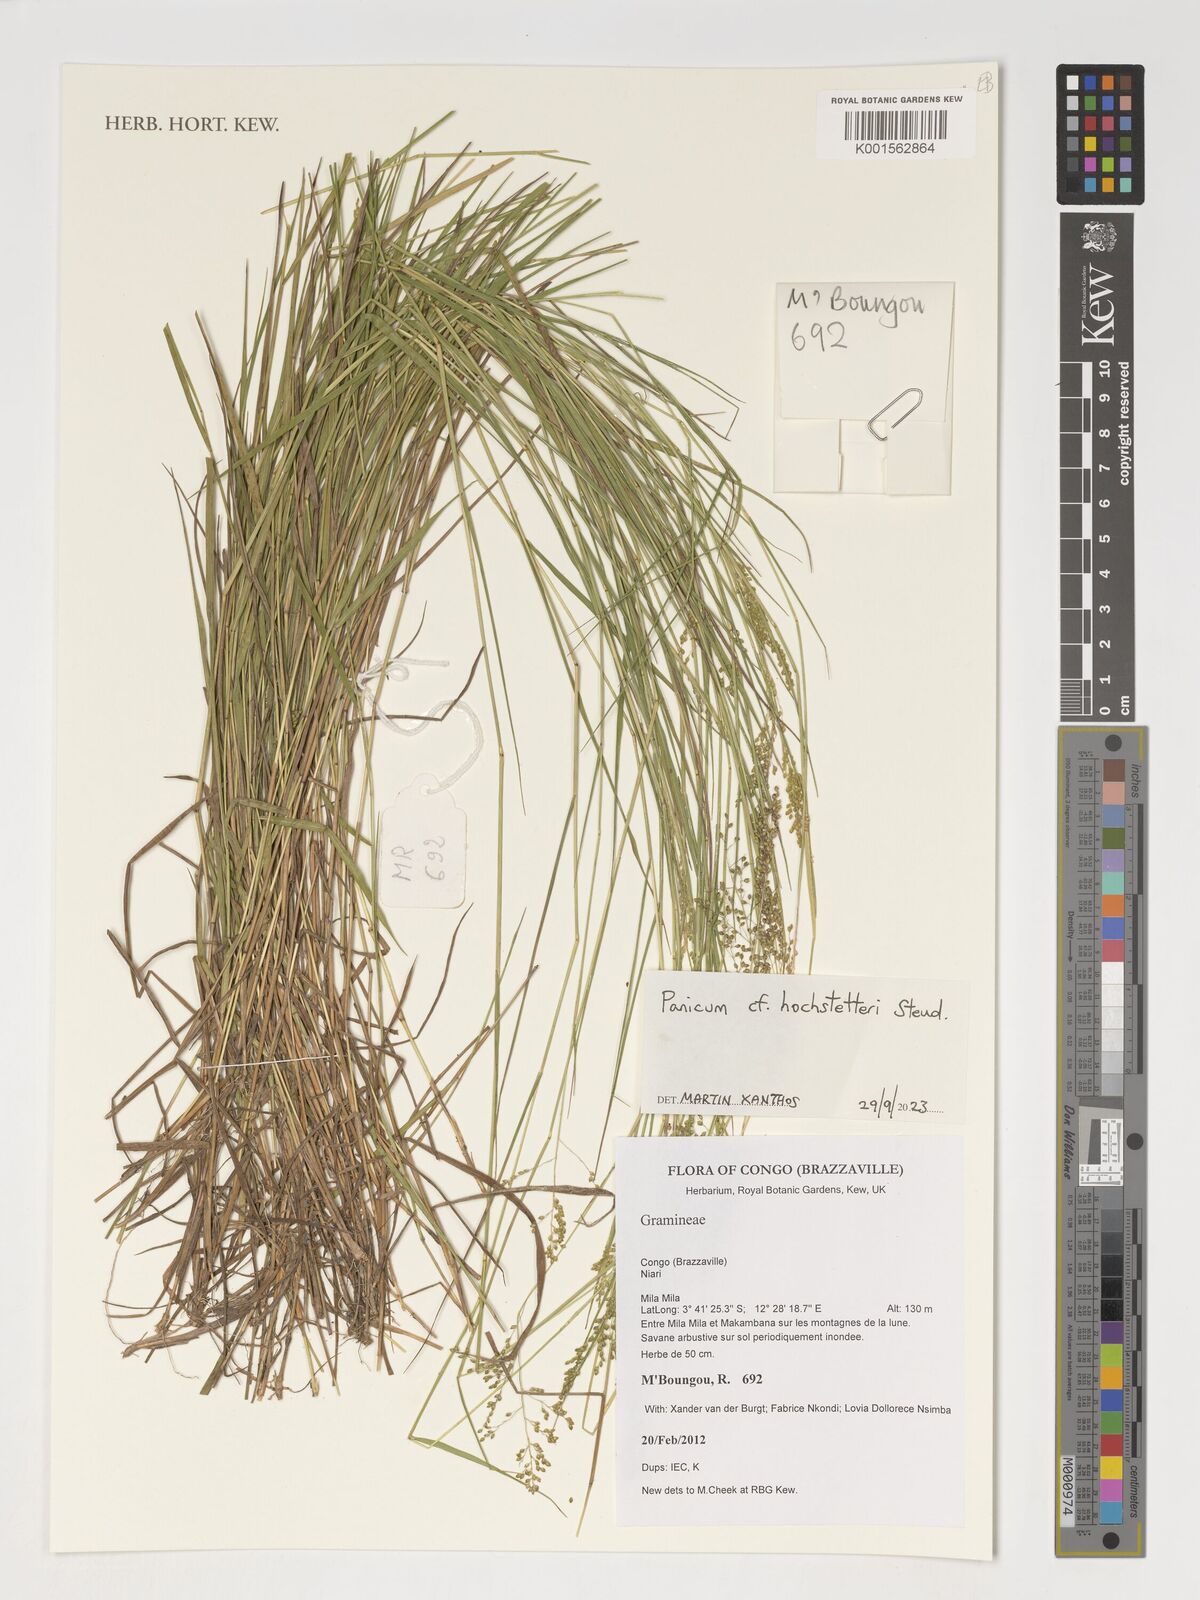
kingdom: Plantae
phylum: Tracheophyta
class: Liliopsida
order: Poales
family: Poaceae
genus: Panicum
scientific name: Panicum hochstetteri
